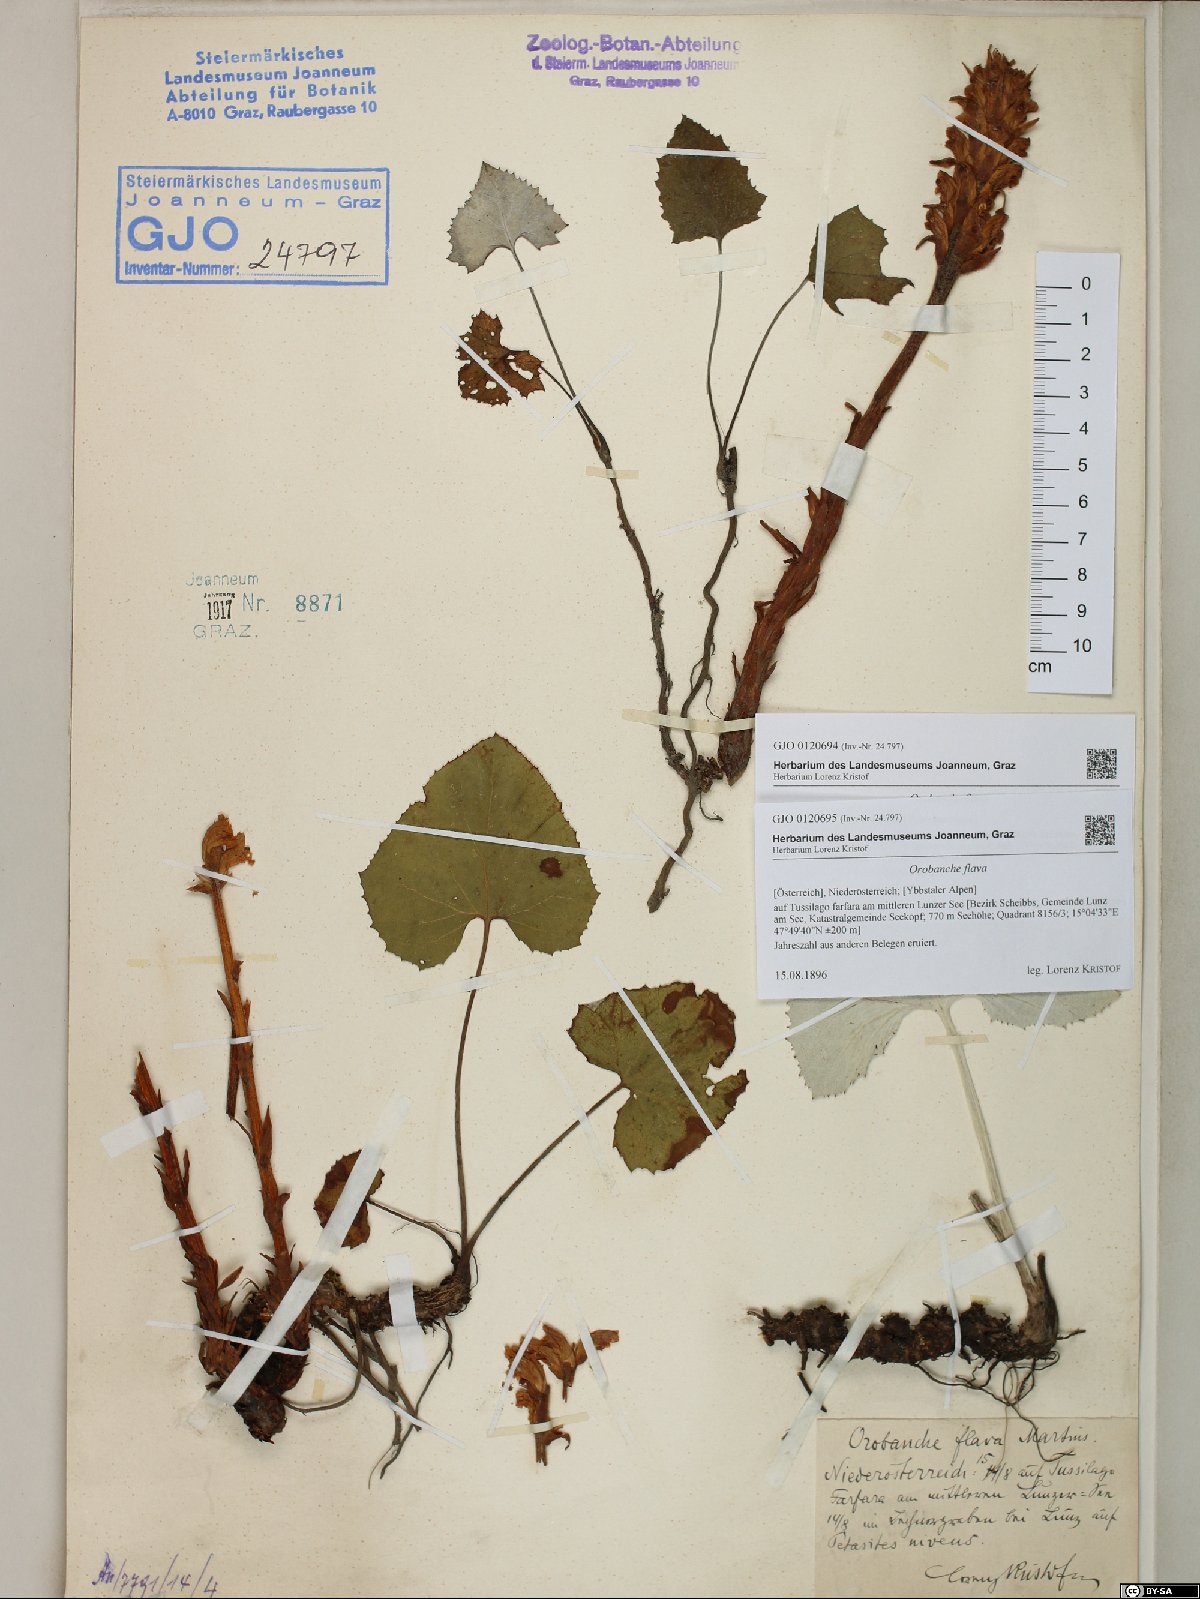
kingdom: Plantae
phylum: Tracheophyta
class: Magnoliopsida
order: Lamiales
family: Orobanchaceae
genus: Orobanche
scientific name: Orobanche flava
